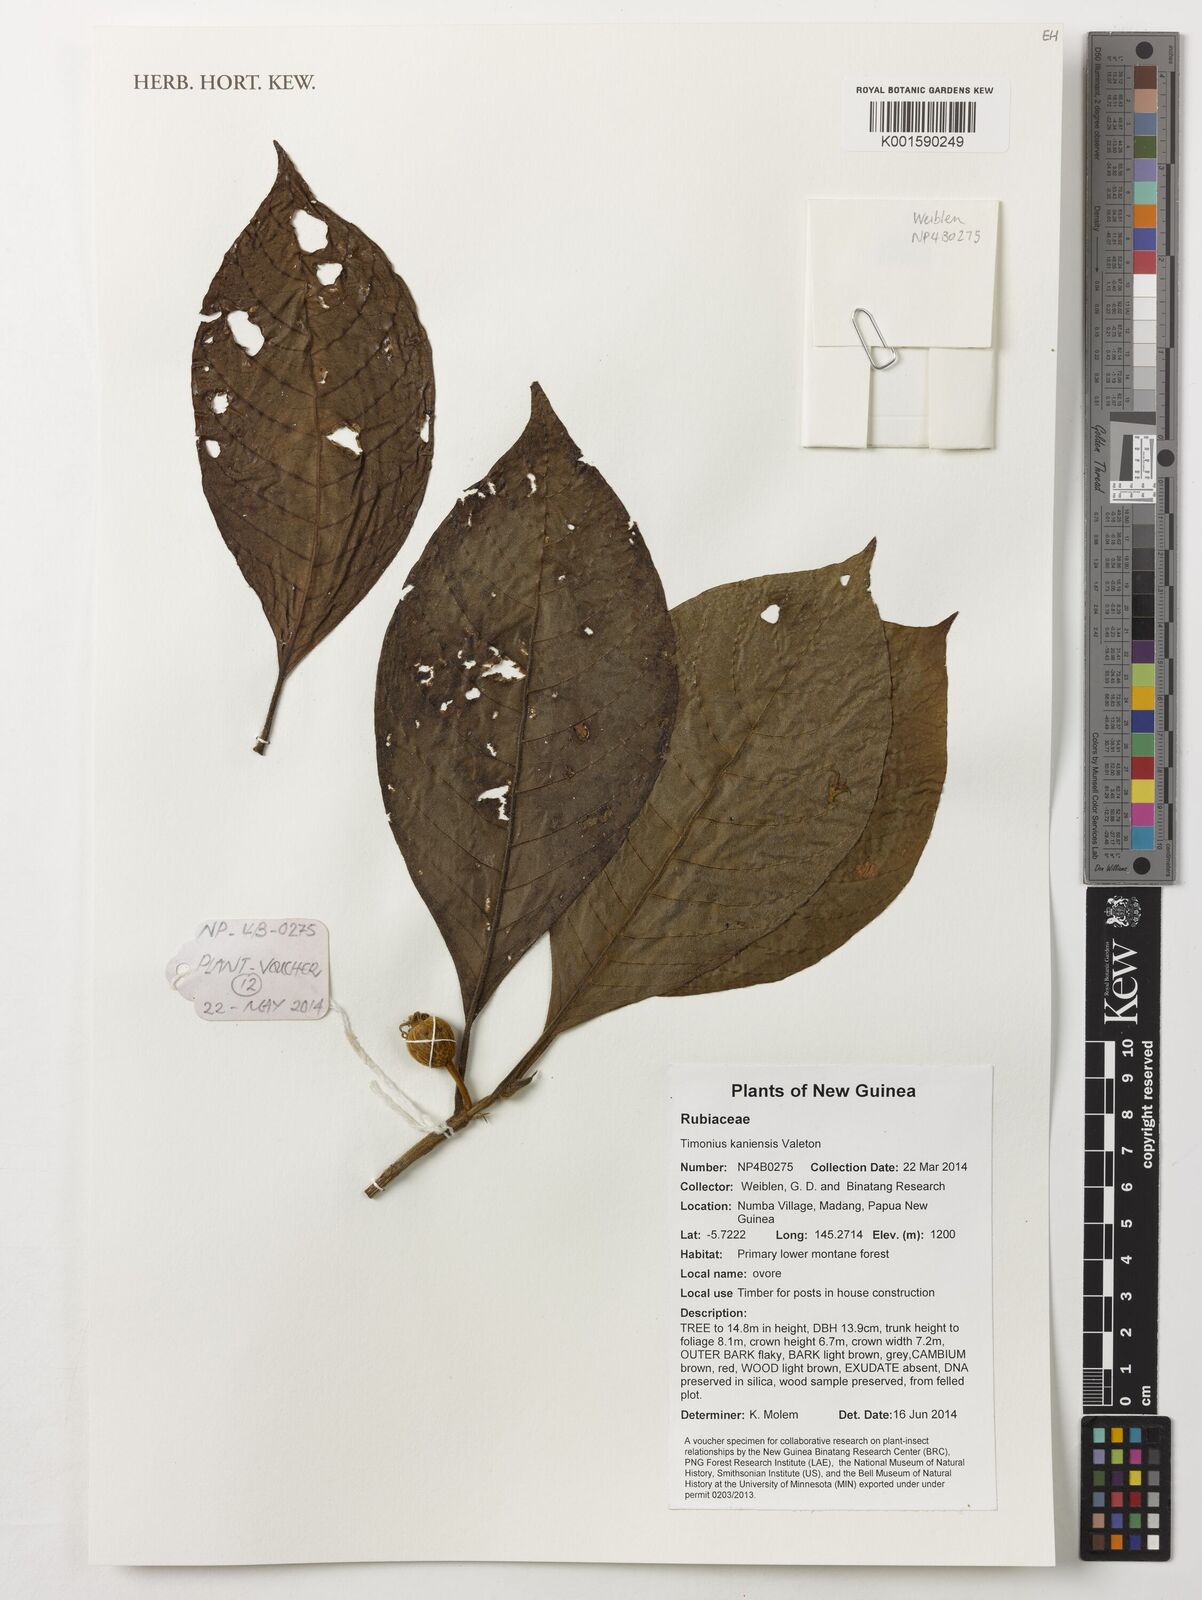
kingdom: Plantae
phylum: Tracheophyta
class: Magnoliopsida
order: Gentianales
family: Rubiaceae
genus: Timonius
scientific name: Timonius kaniensis
